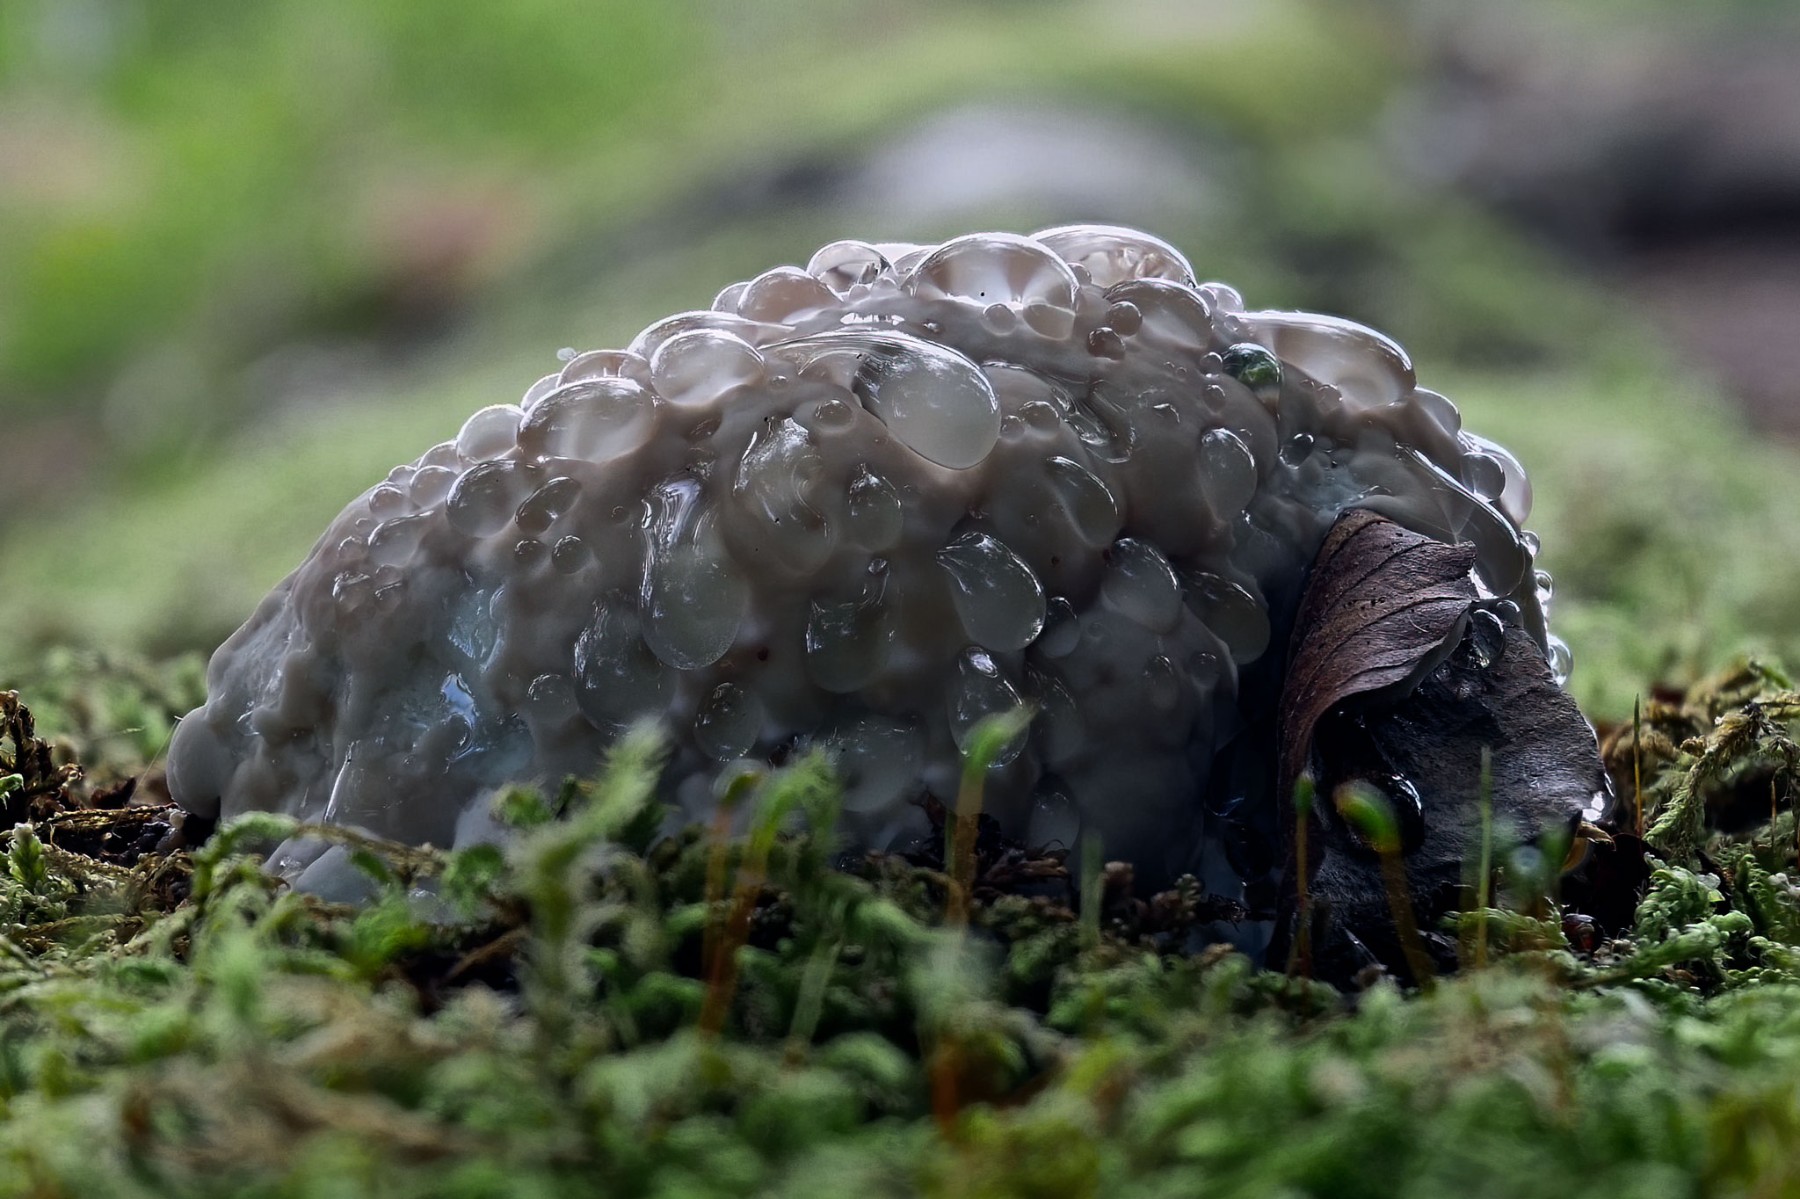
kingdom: Fungi
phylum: Basidiomycota
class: Agaricomycetes
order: Polyporales
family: Fomitopsidaceae
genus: Fomitopsis
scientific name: Fomitopsis pinicola
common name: randbæltet hovporesvamp
